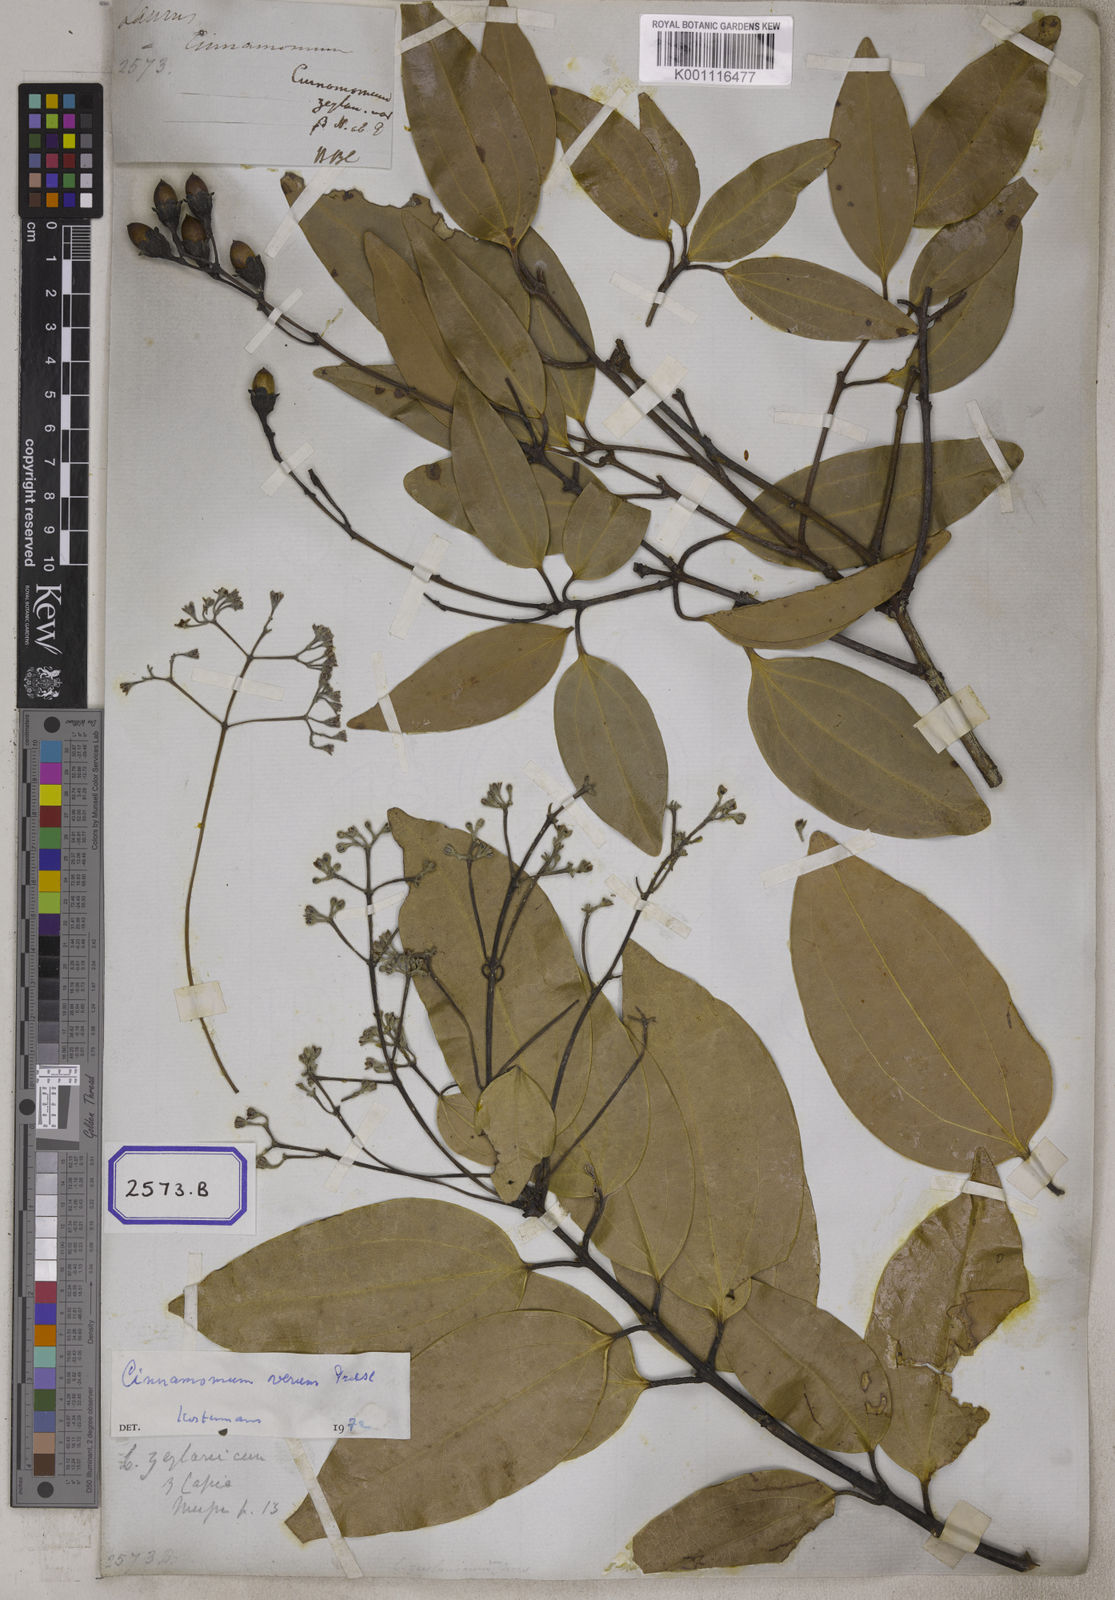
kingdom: Plantae
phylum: Tracheophyta
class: Magnoliopsida
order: Laurales
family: Lauraceae
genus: Cinnamomum
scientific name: Cinnamomum verum
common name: Cinnamon
